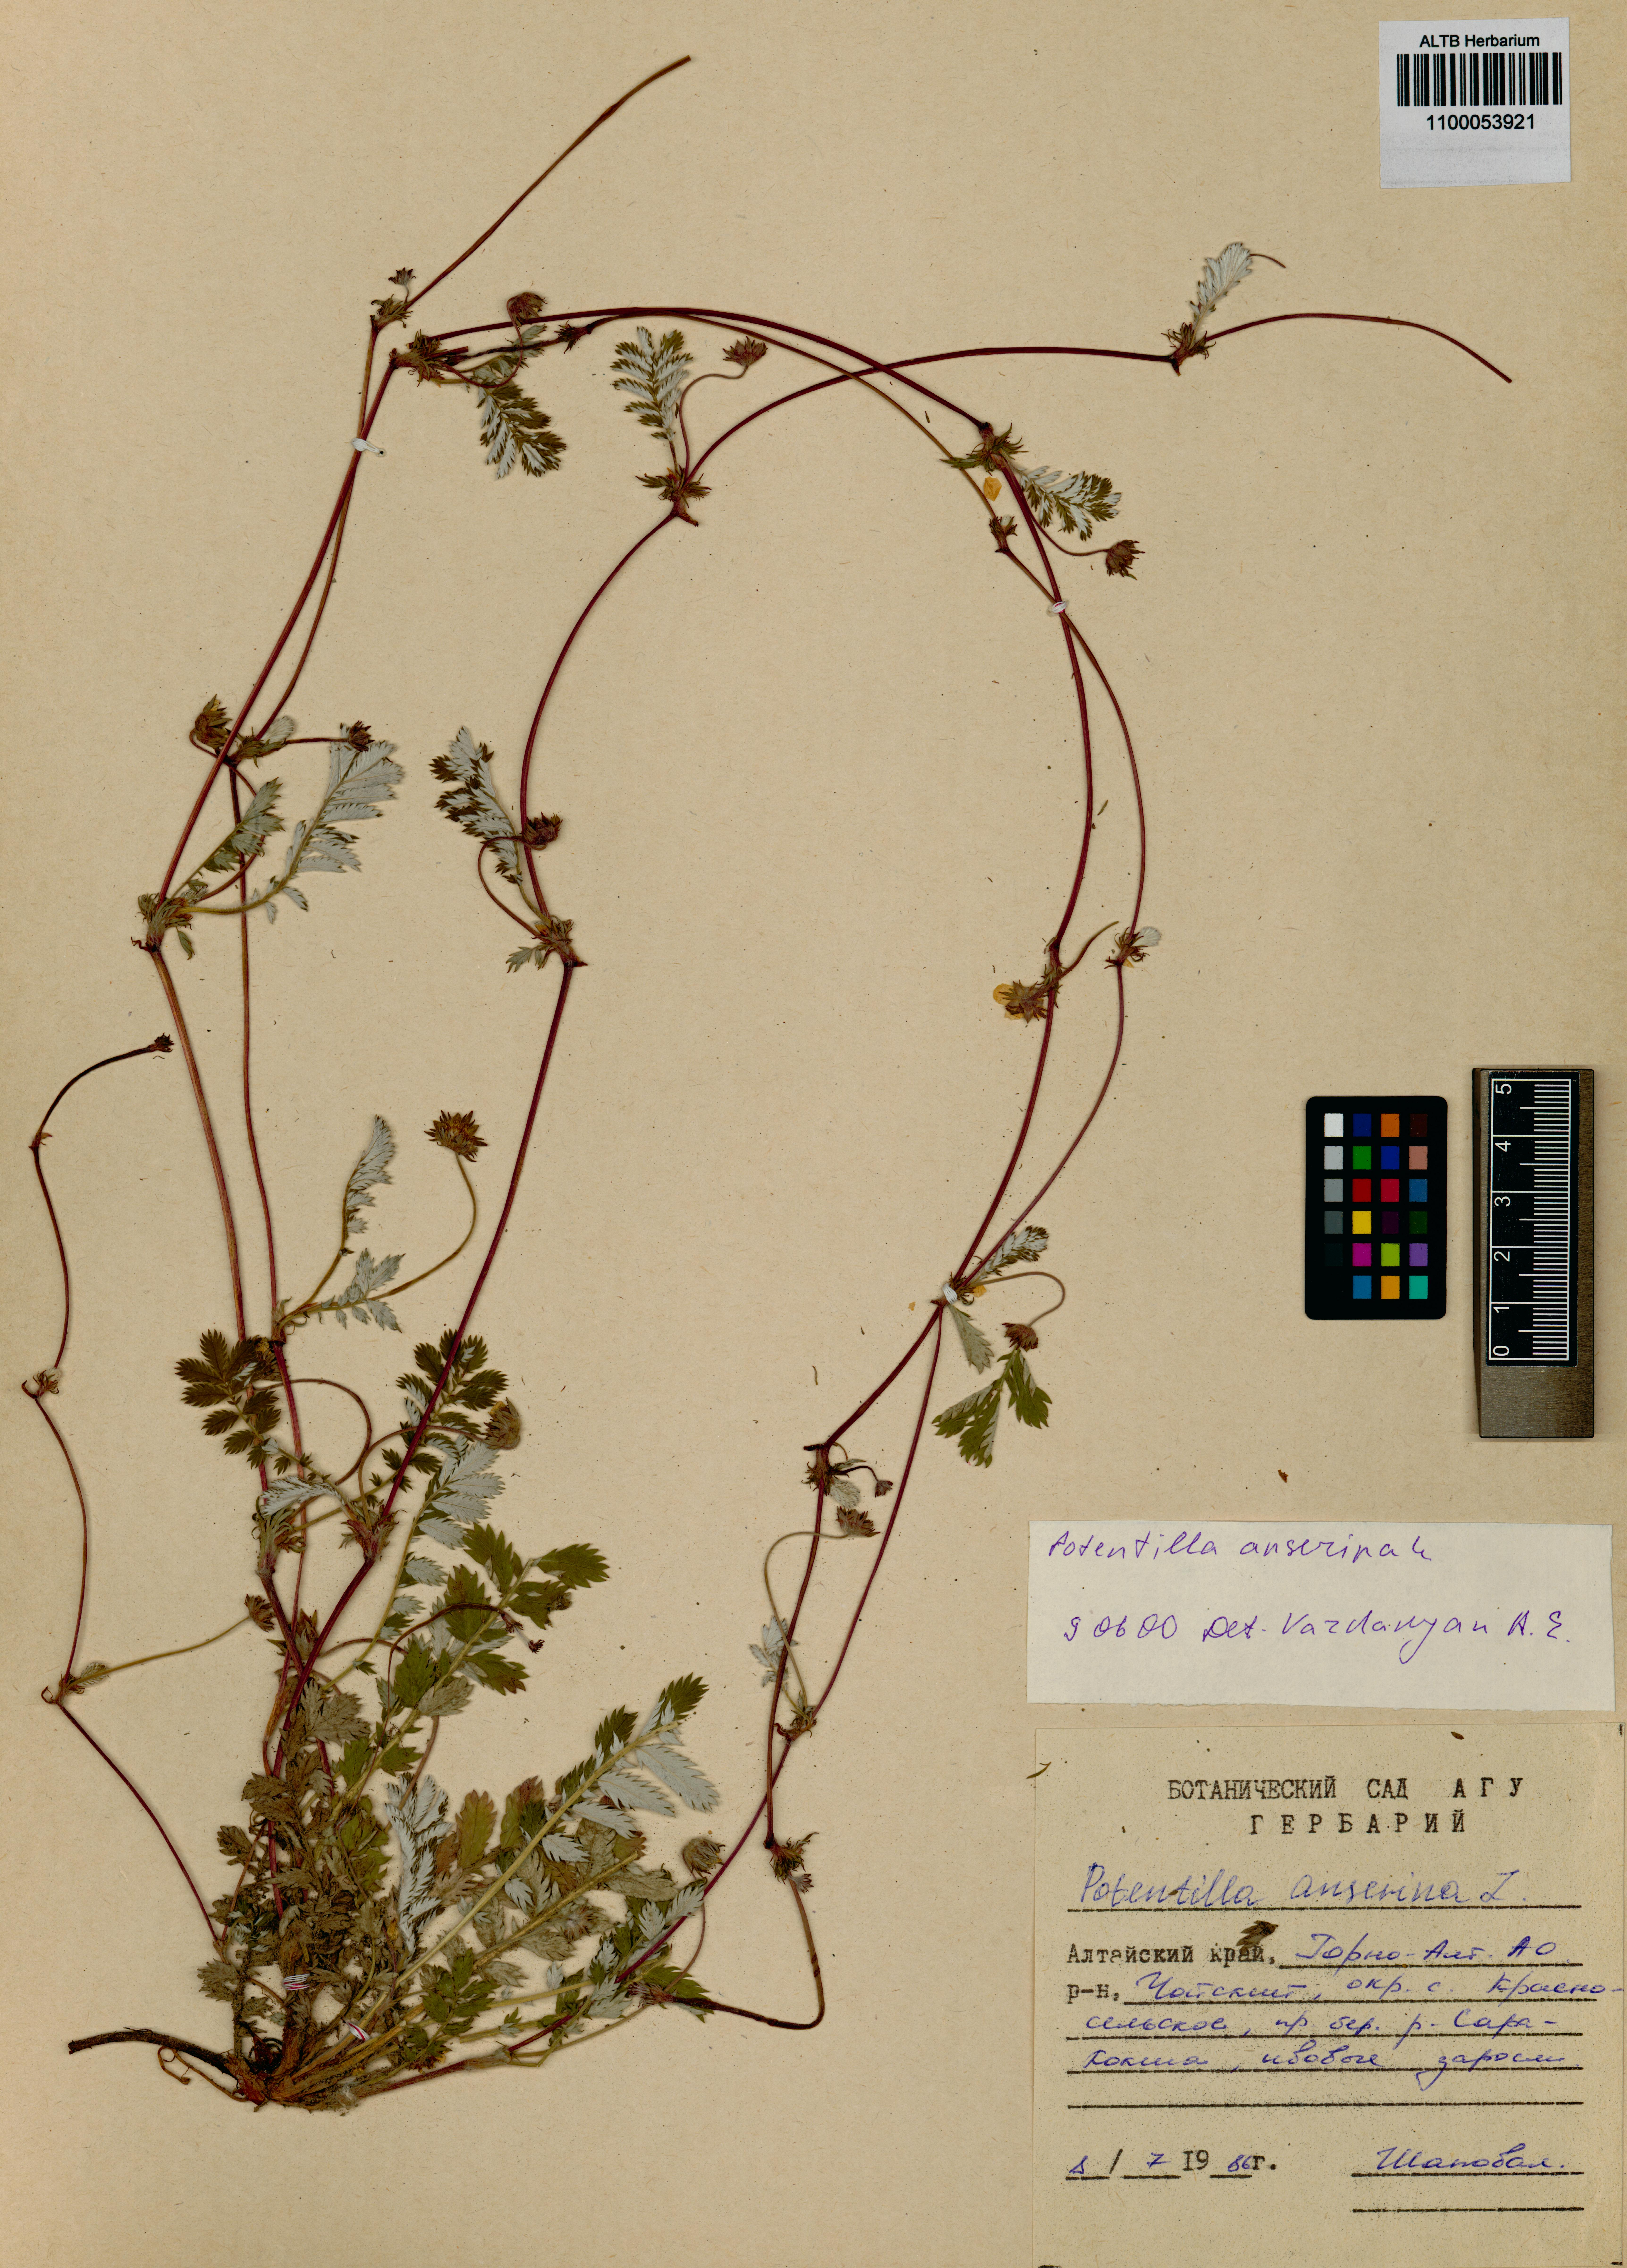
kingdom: Plantae
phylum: Tracheophyta
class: Magnoliopsida
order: Rosales
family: Rosaceae
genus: Argentina
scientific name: Argentina anserina
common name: Common silverweed
